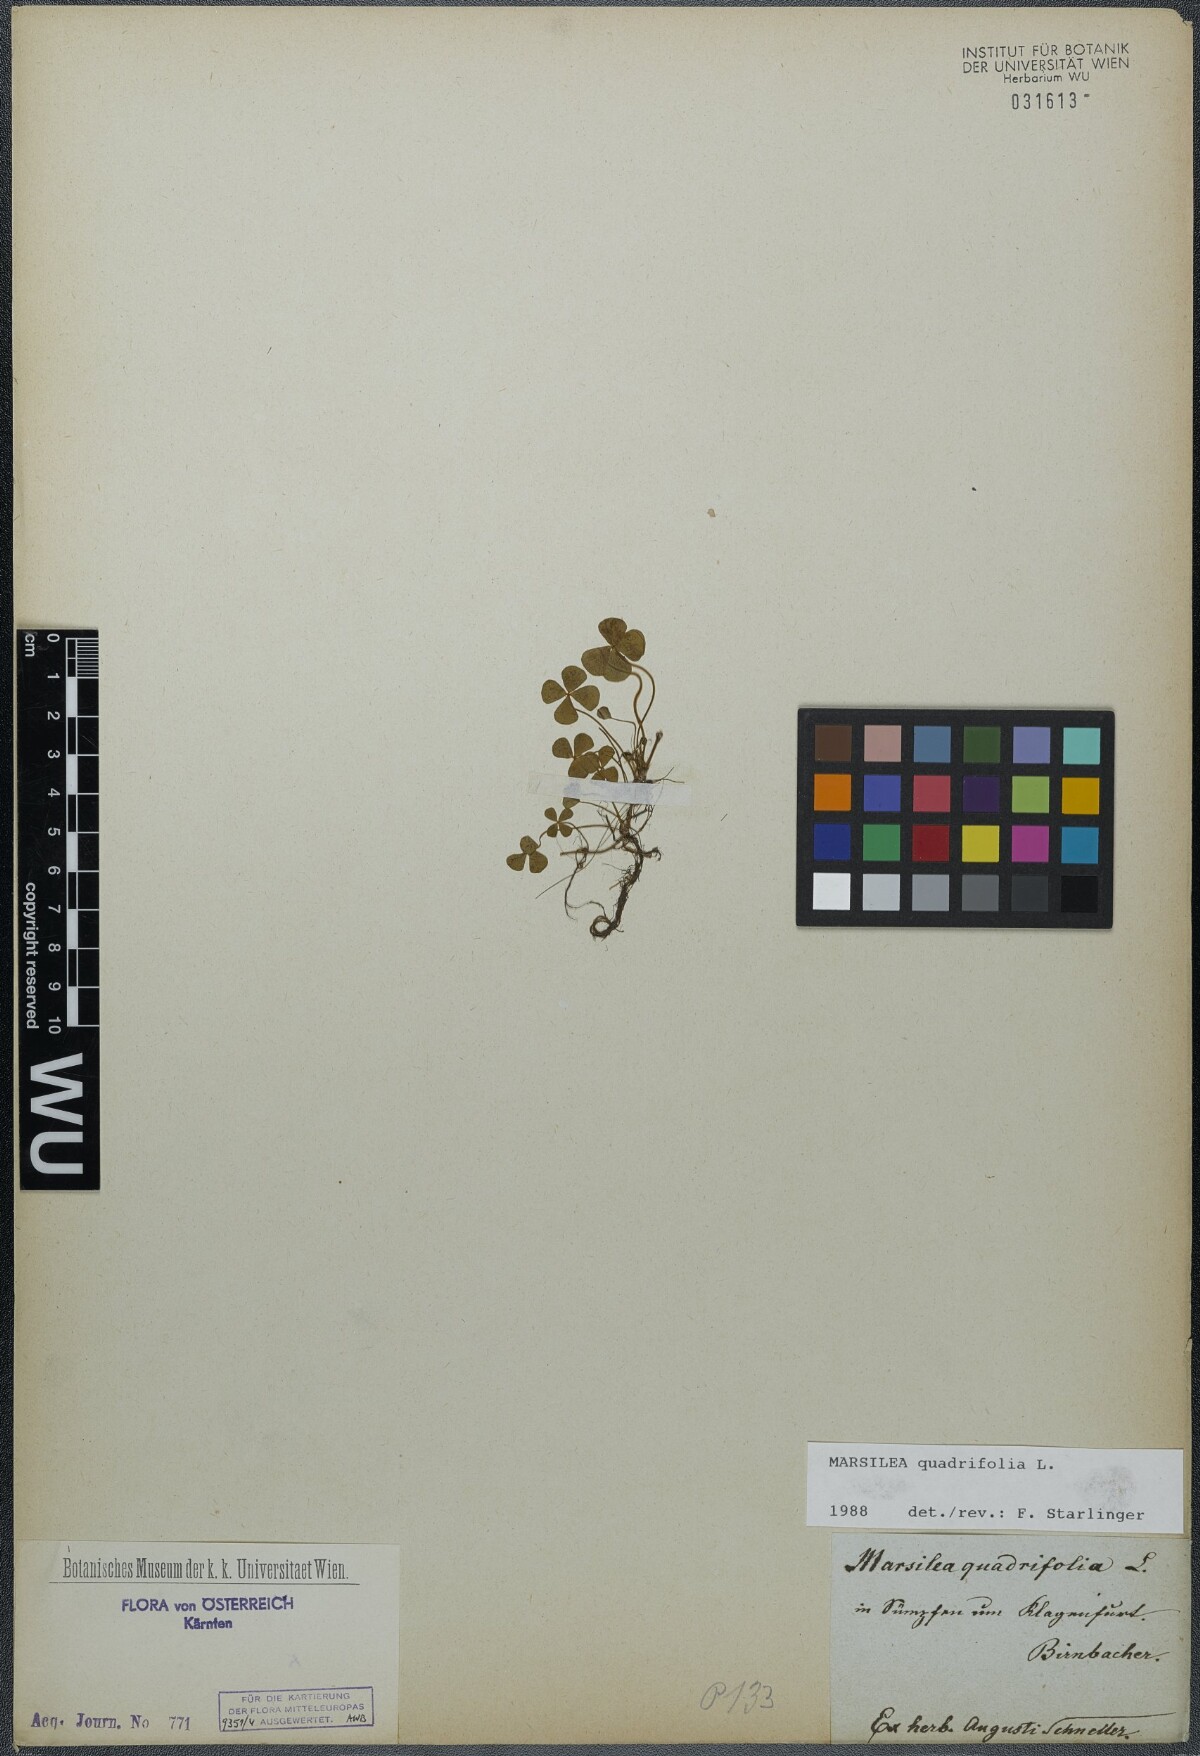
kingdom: Plantae
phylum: Tracheophyta
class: Polypodiopsida
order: Salviniales
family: Marsileaceae
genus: Marsilea
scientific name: Marsilea quadrifolia
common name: Water shamrock
